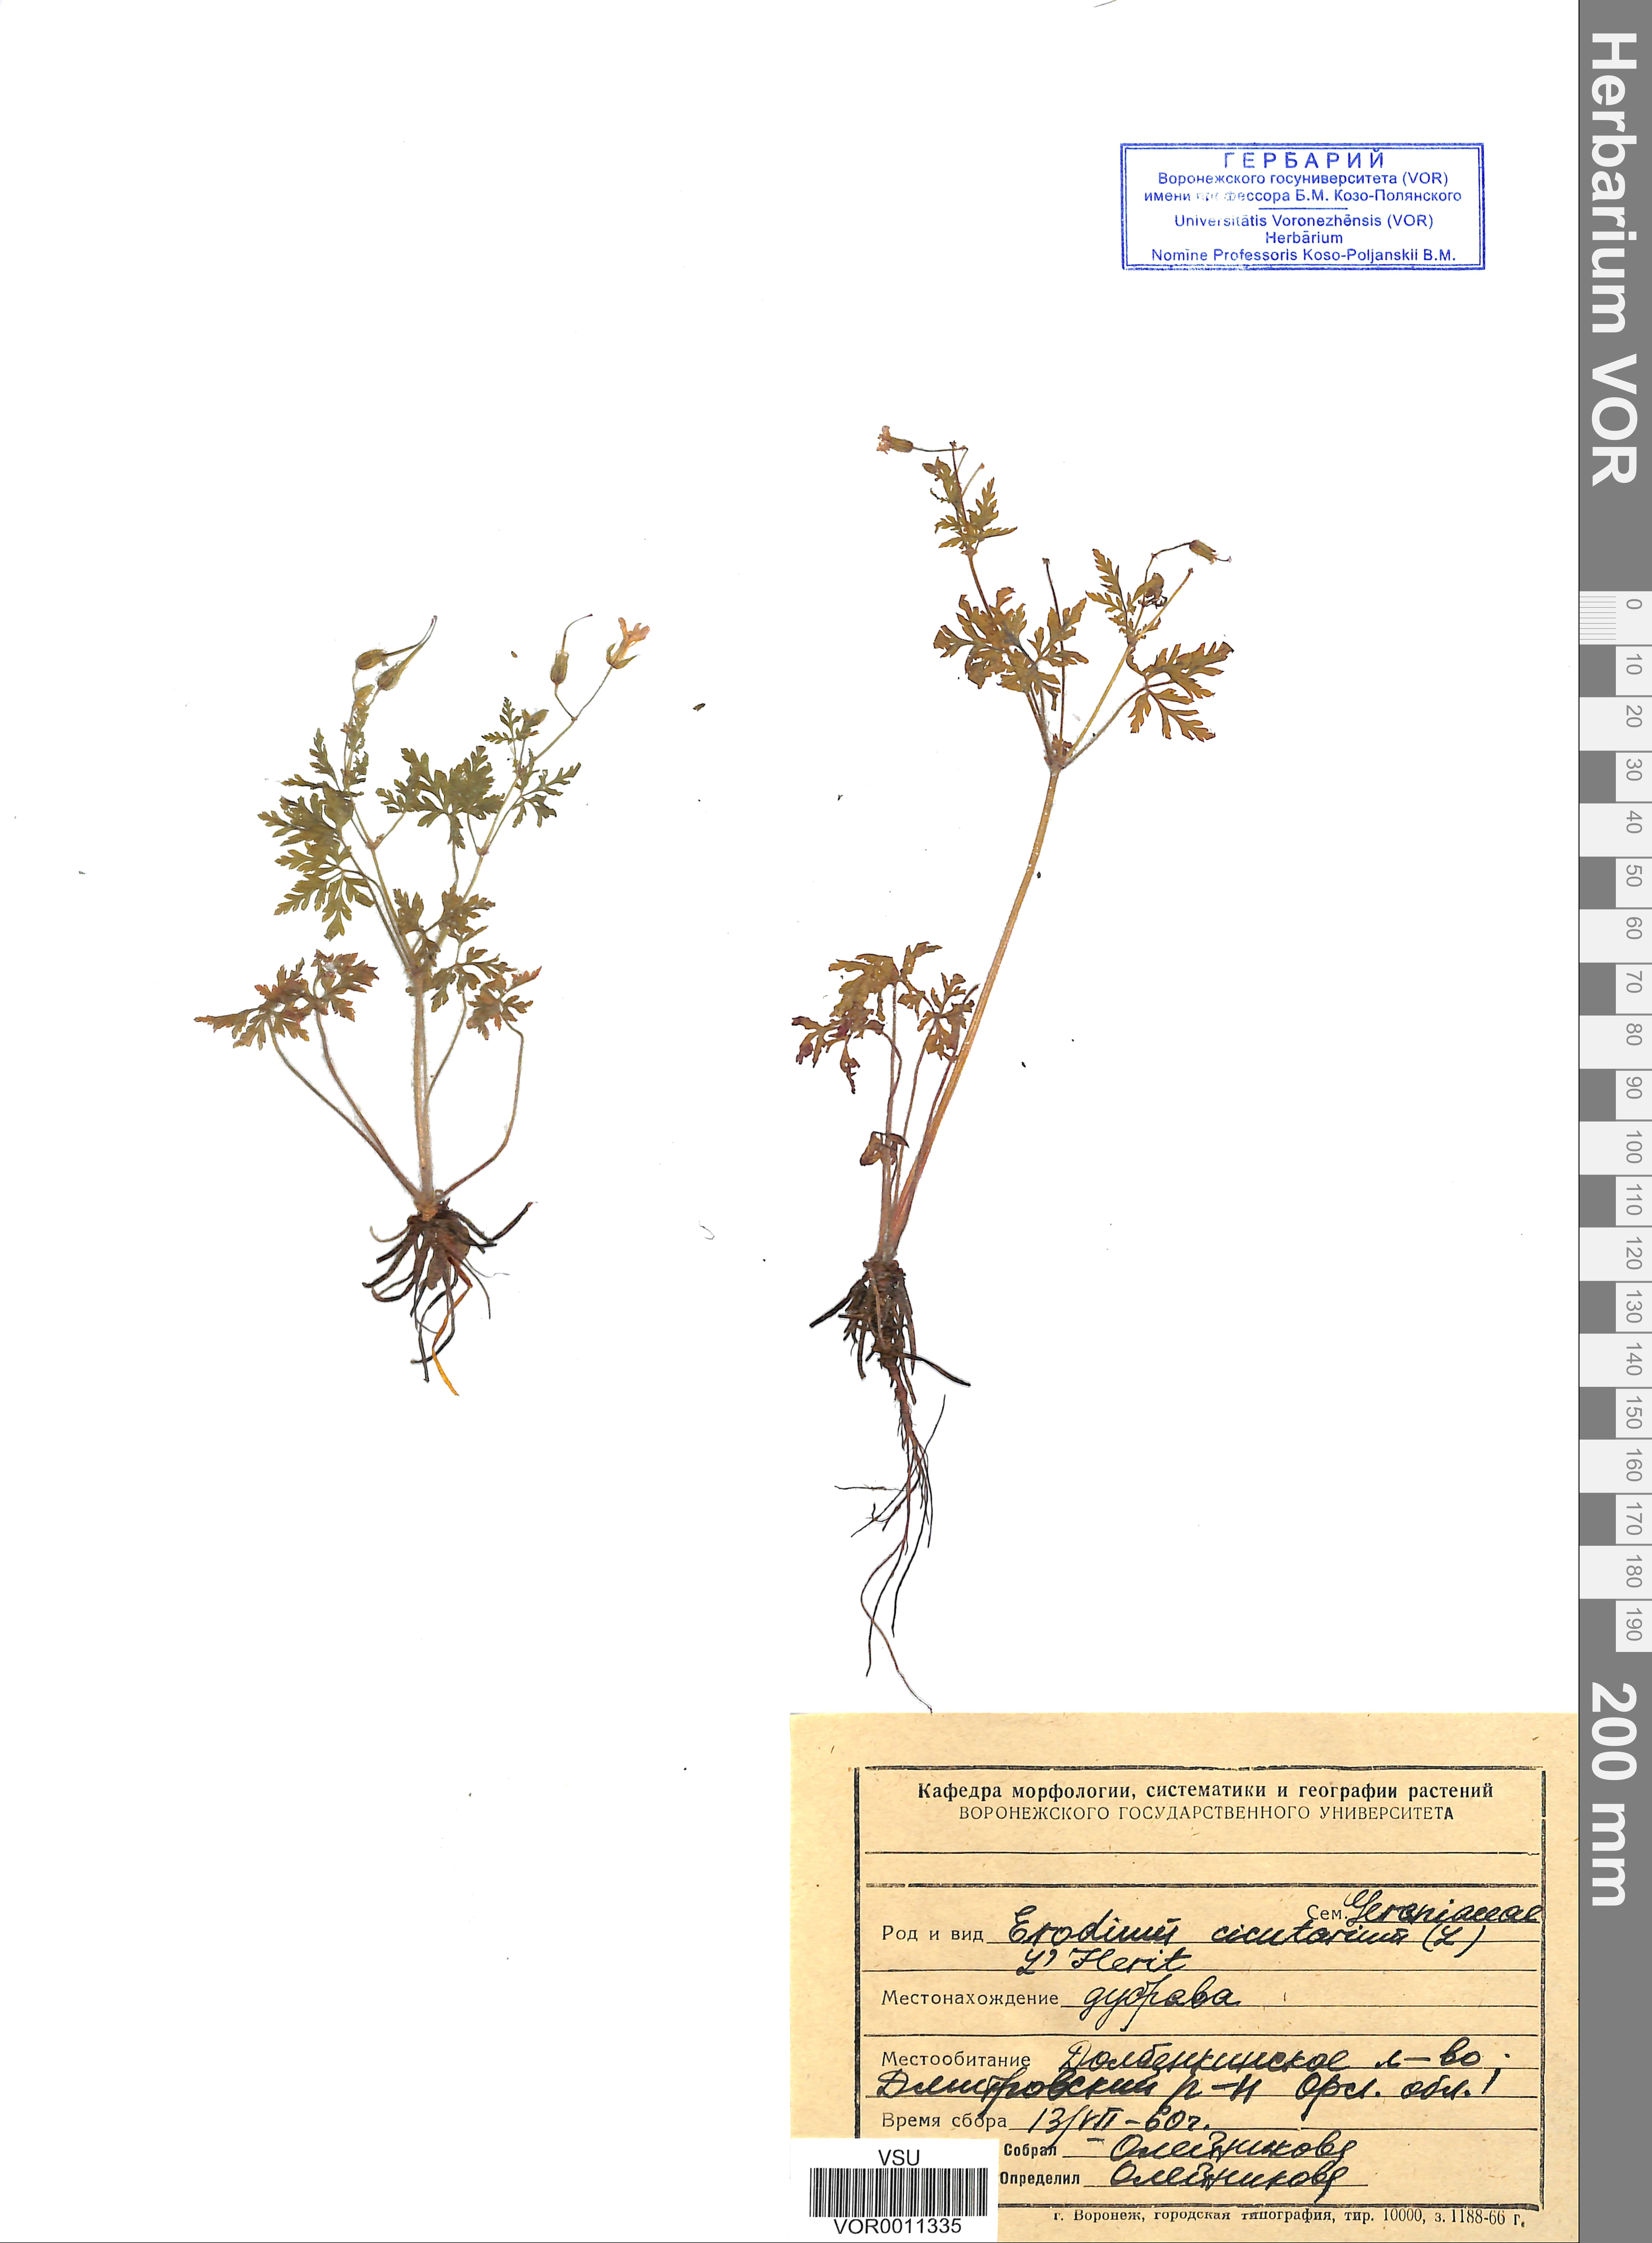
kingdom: Plantae
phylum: Tracheophyta
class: Magnoliopsida
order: Geraniales
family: Geraniaceae
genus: Erodium
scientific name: Erodium cicutarium
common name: Common stork's-bill
